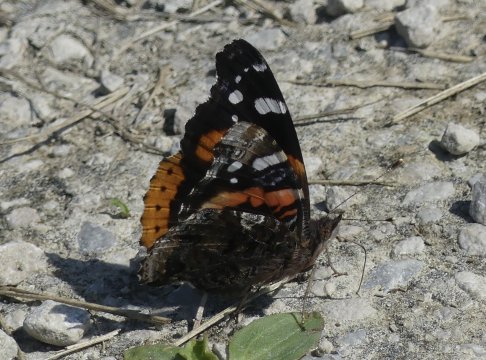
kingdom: Animalia
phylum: Arthropoda
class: Insecta
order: Lepidoptera
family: Nymphalidae
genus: Vanessa
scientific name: Vanessa atalanta
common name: Red Admiral
